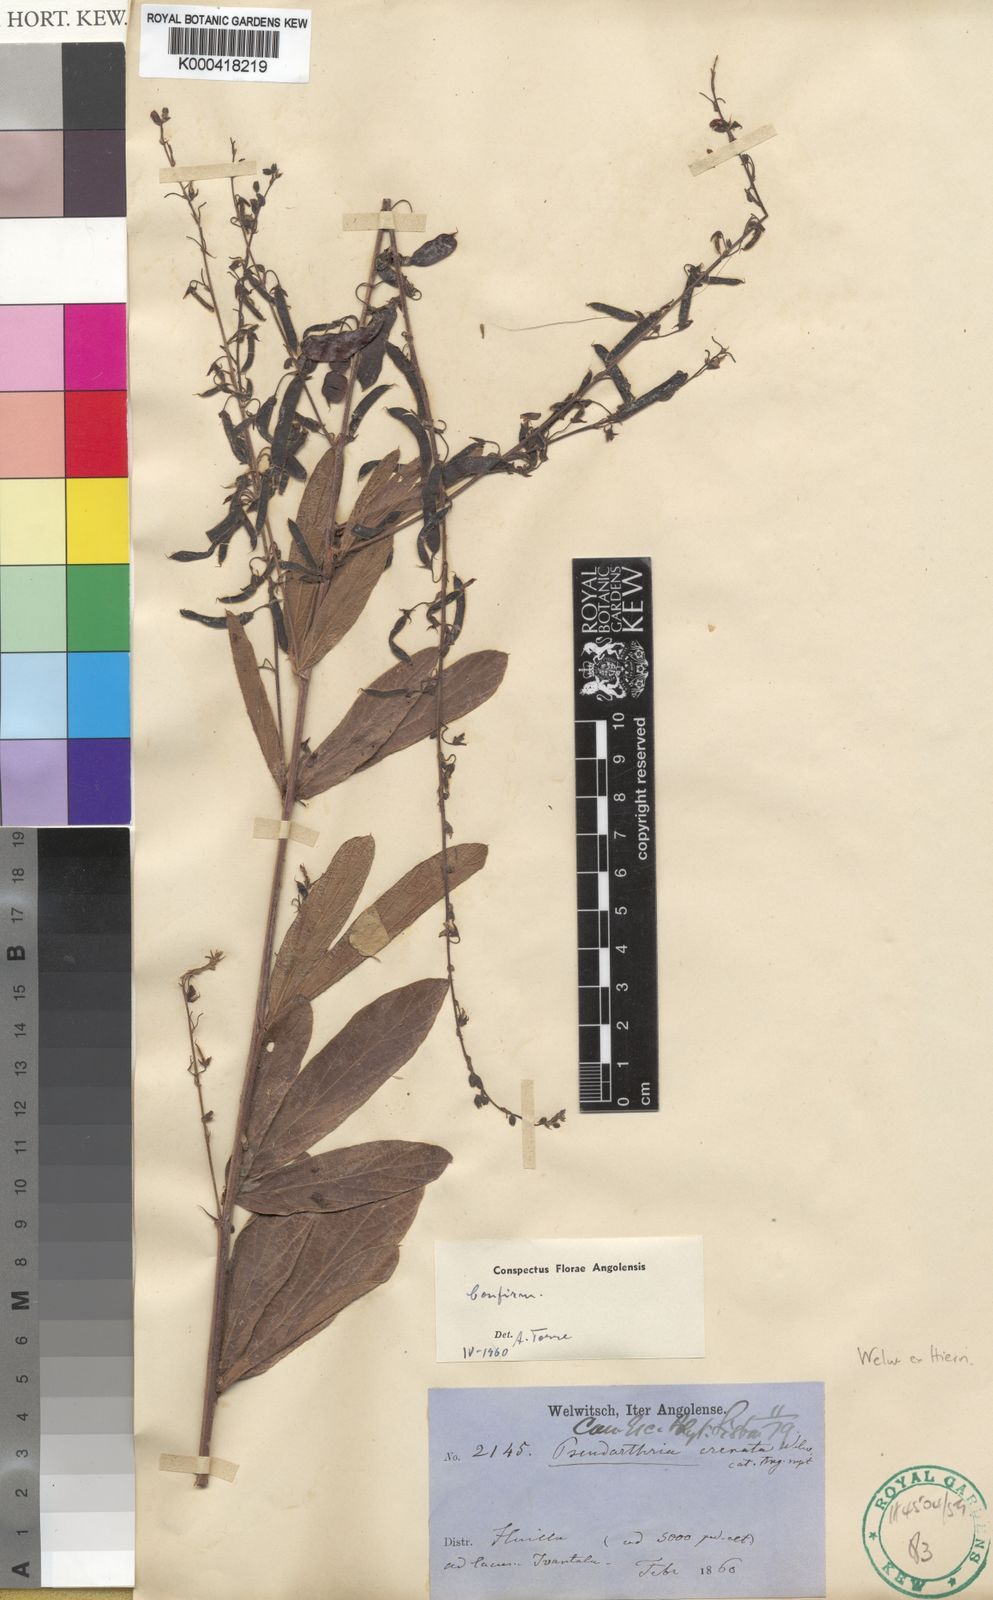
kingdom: Plantae
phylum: Tracheophyta
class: Magnoliopsida
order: Fabales
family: Fabaceae
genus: Pseudarthria
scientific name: Pseudarthria crenata
